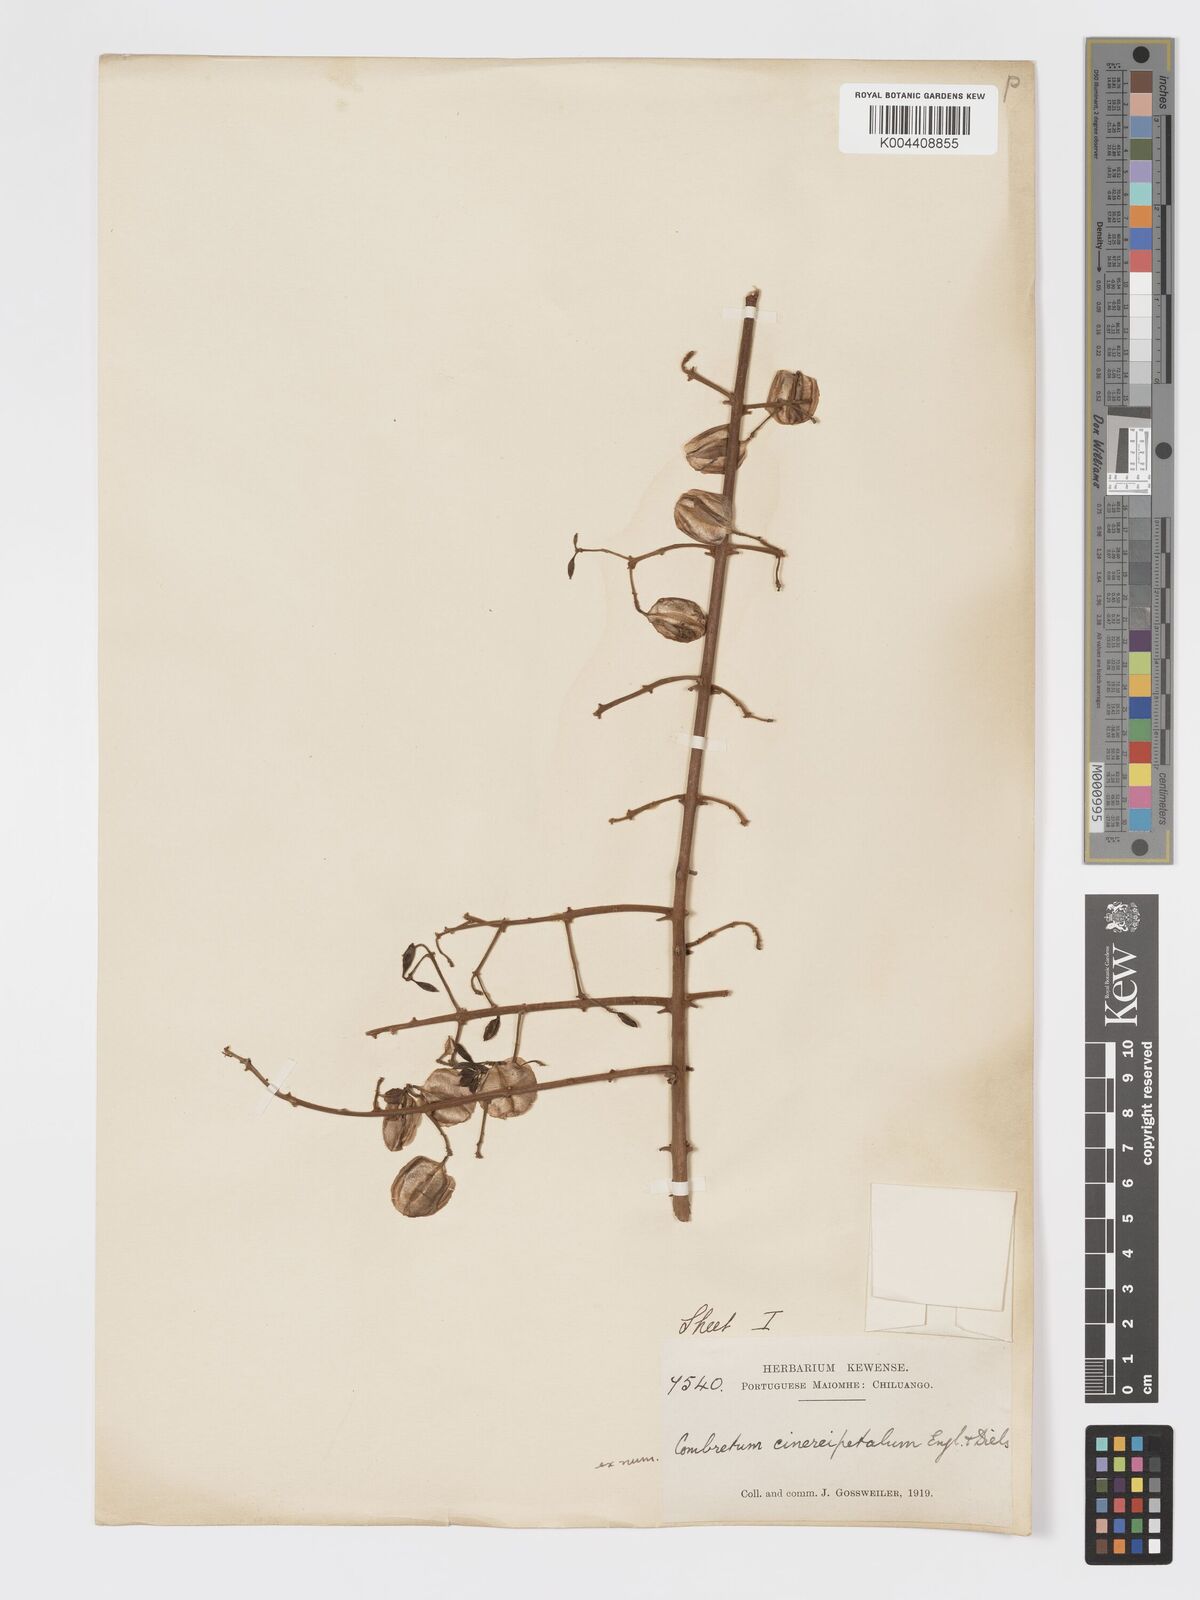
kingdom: Plantae
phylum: Tracheophyta
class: Magnoliopsida
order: Myrtales
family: Combretaceae
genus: Combretum
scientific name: Combretum cinereopetalum
